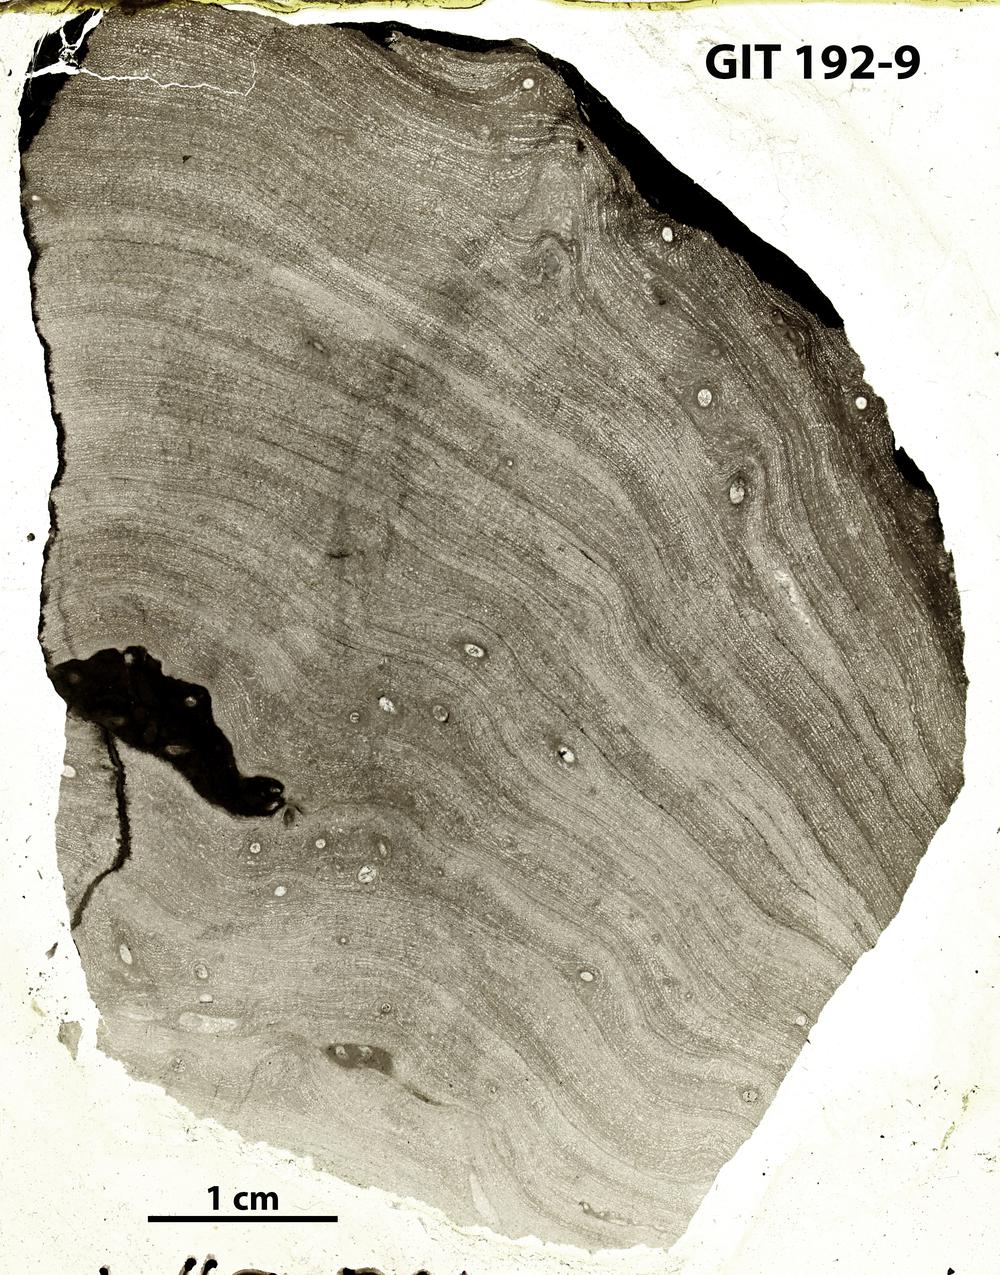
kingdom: Animalia
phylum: Porifera
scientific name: Porifera
